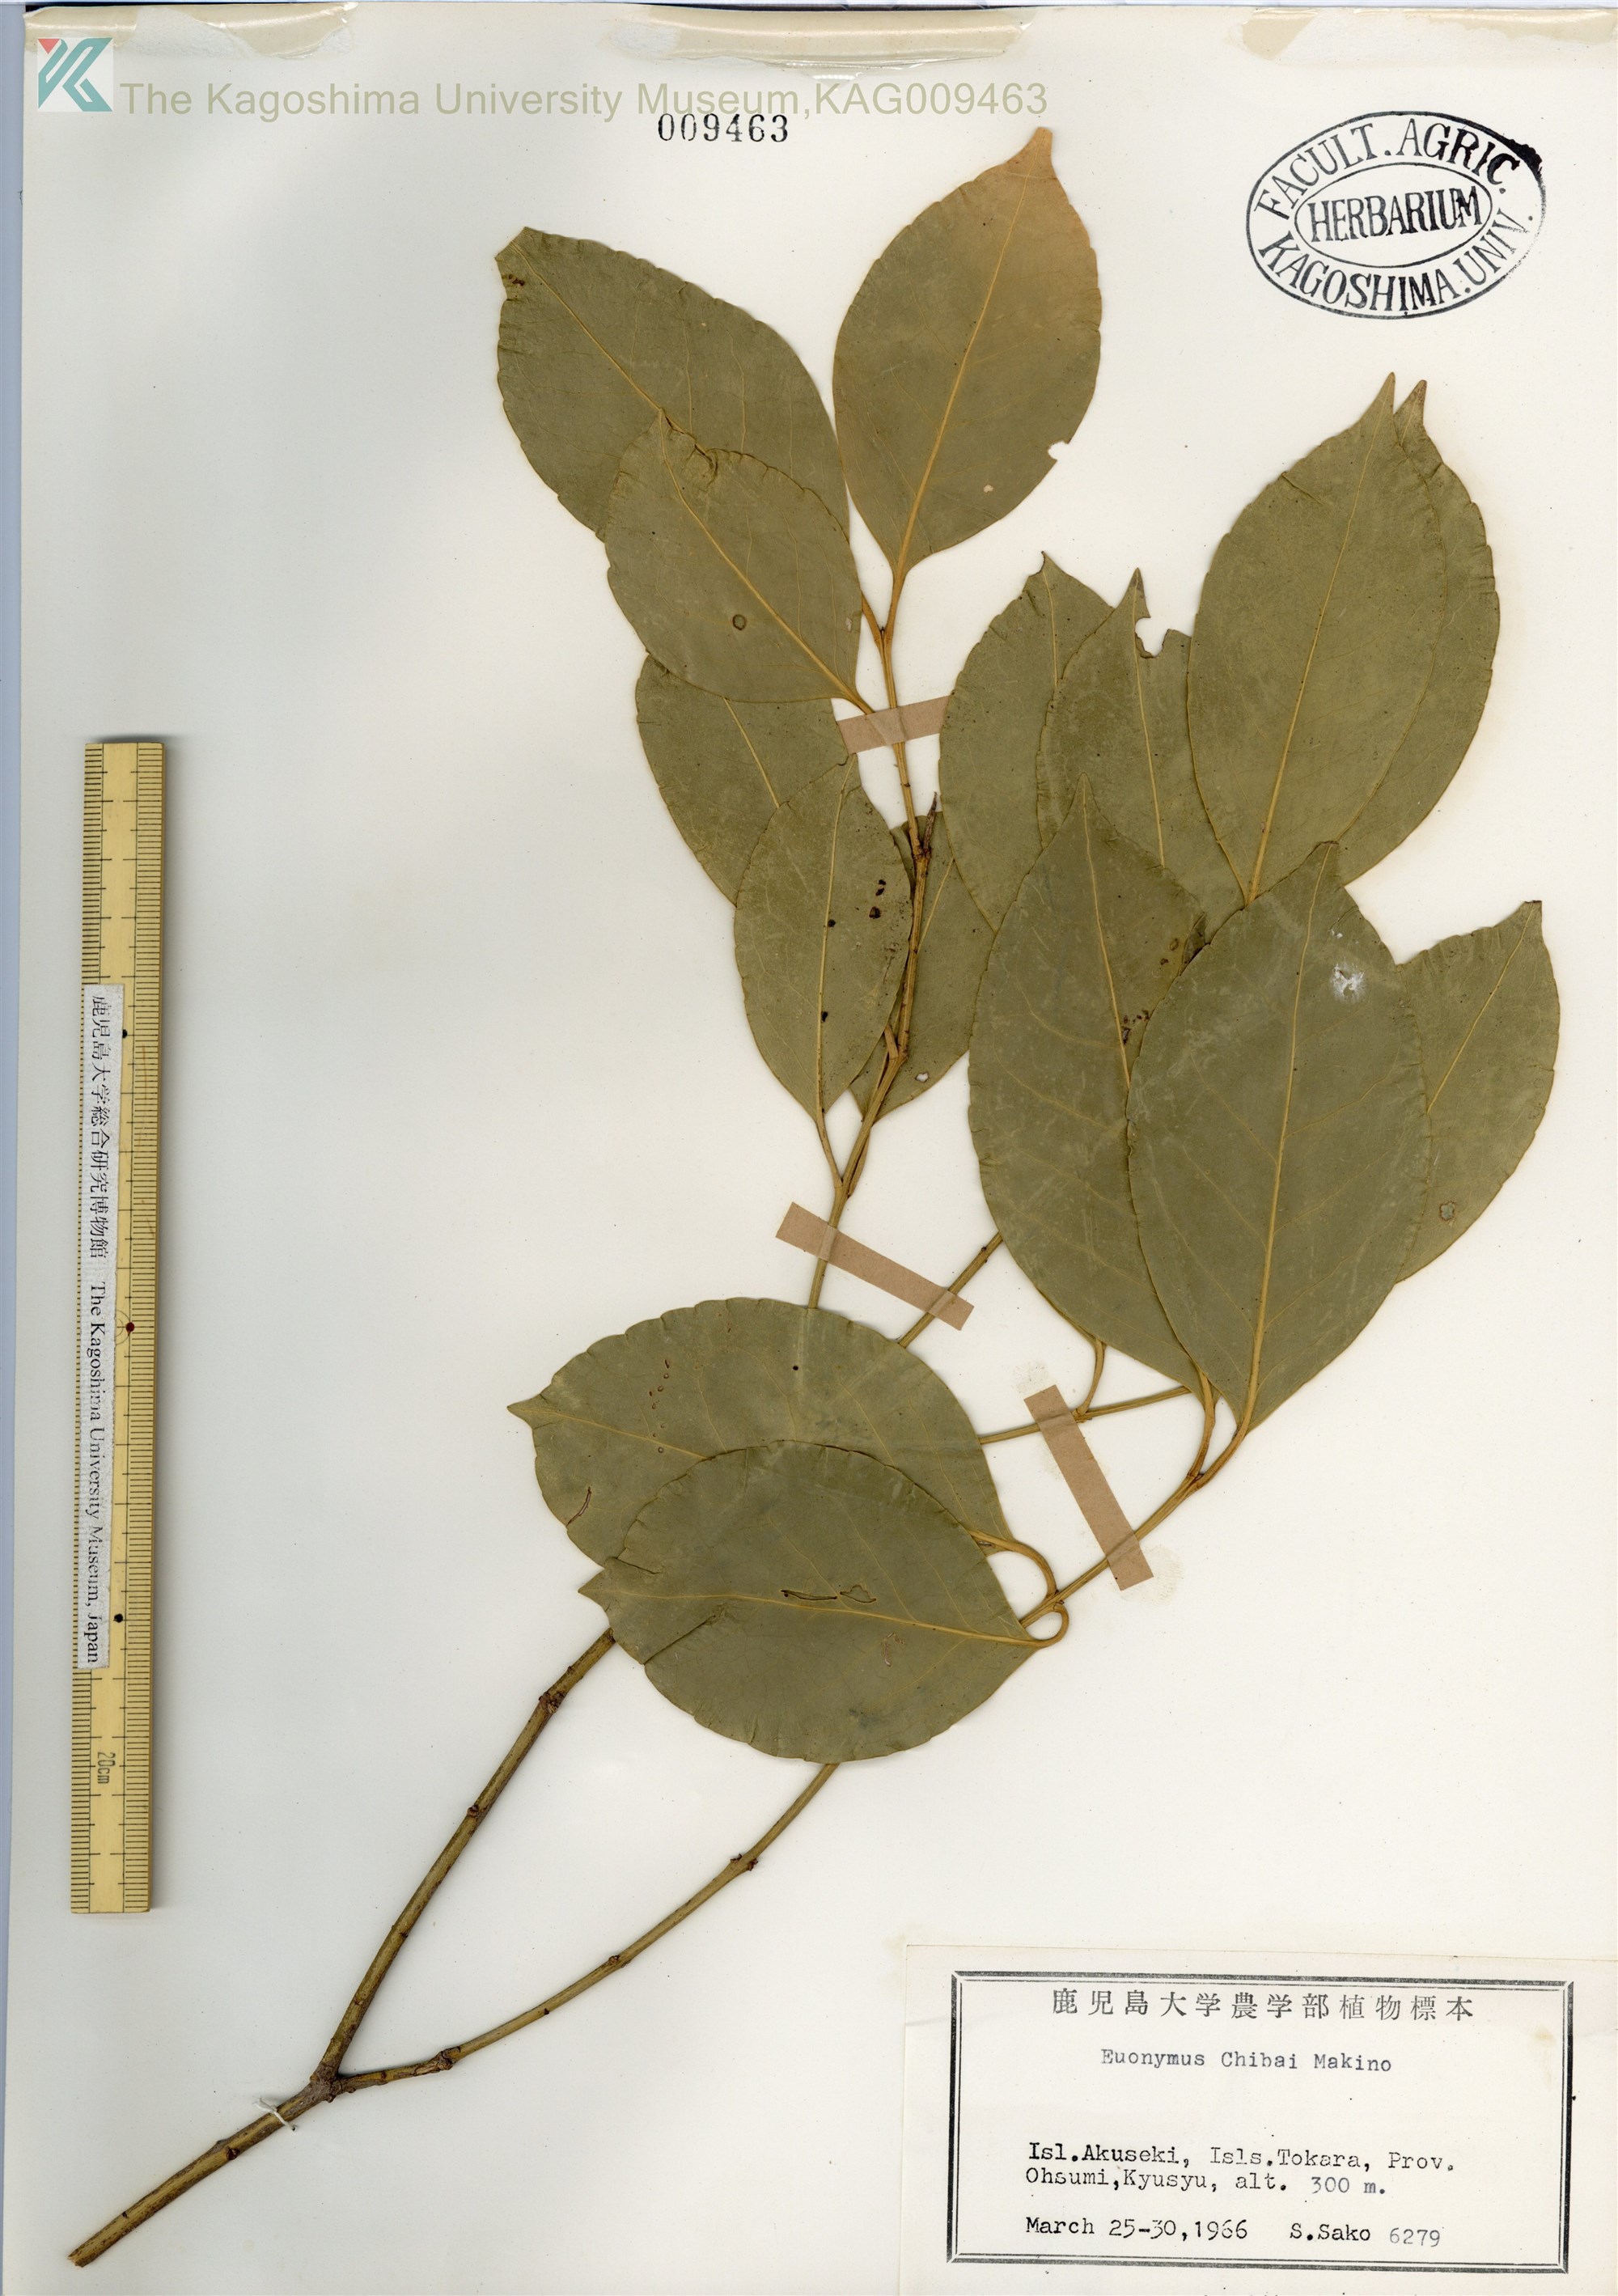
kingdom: Plantae
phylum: Tracheophyta
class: Magnoliopsida
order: Celastrales
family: Celastraceae
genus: Euonymus
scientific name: Euonymus chibae
